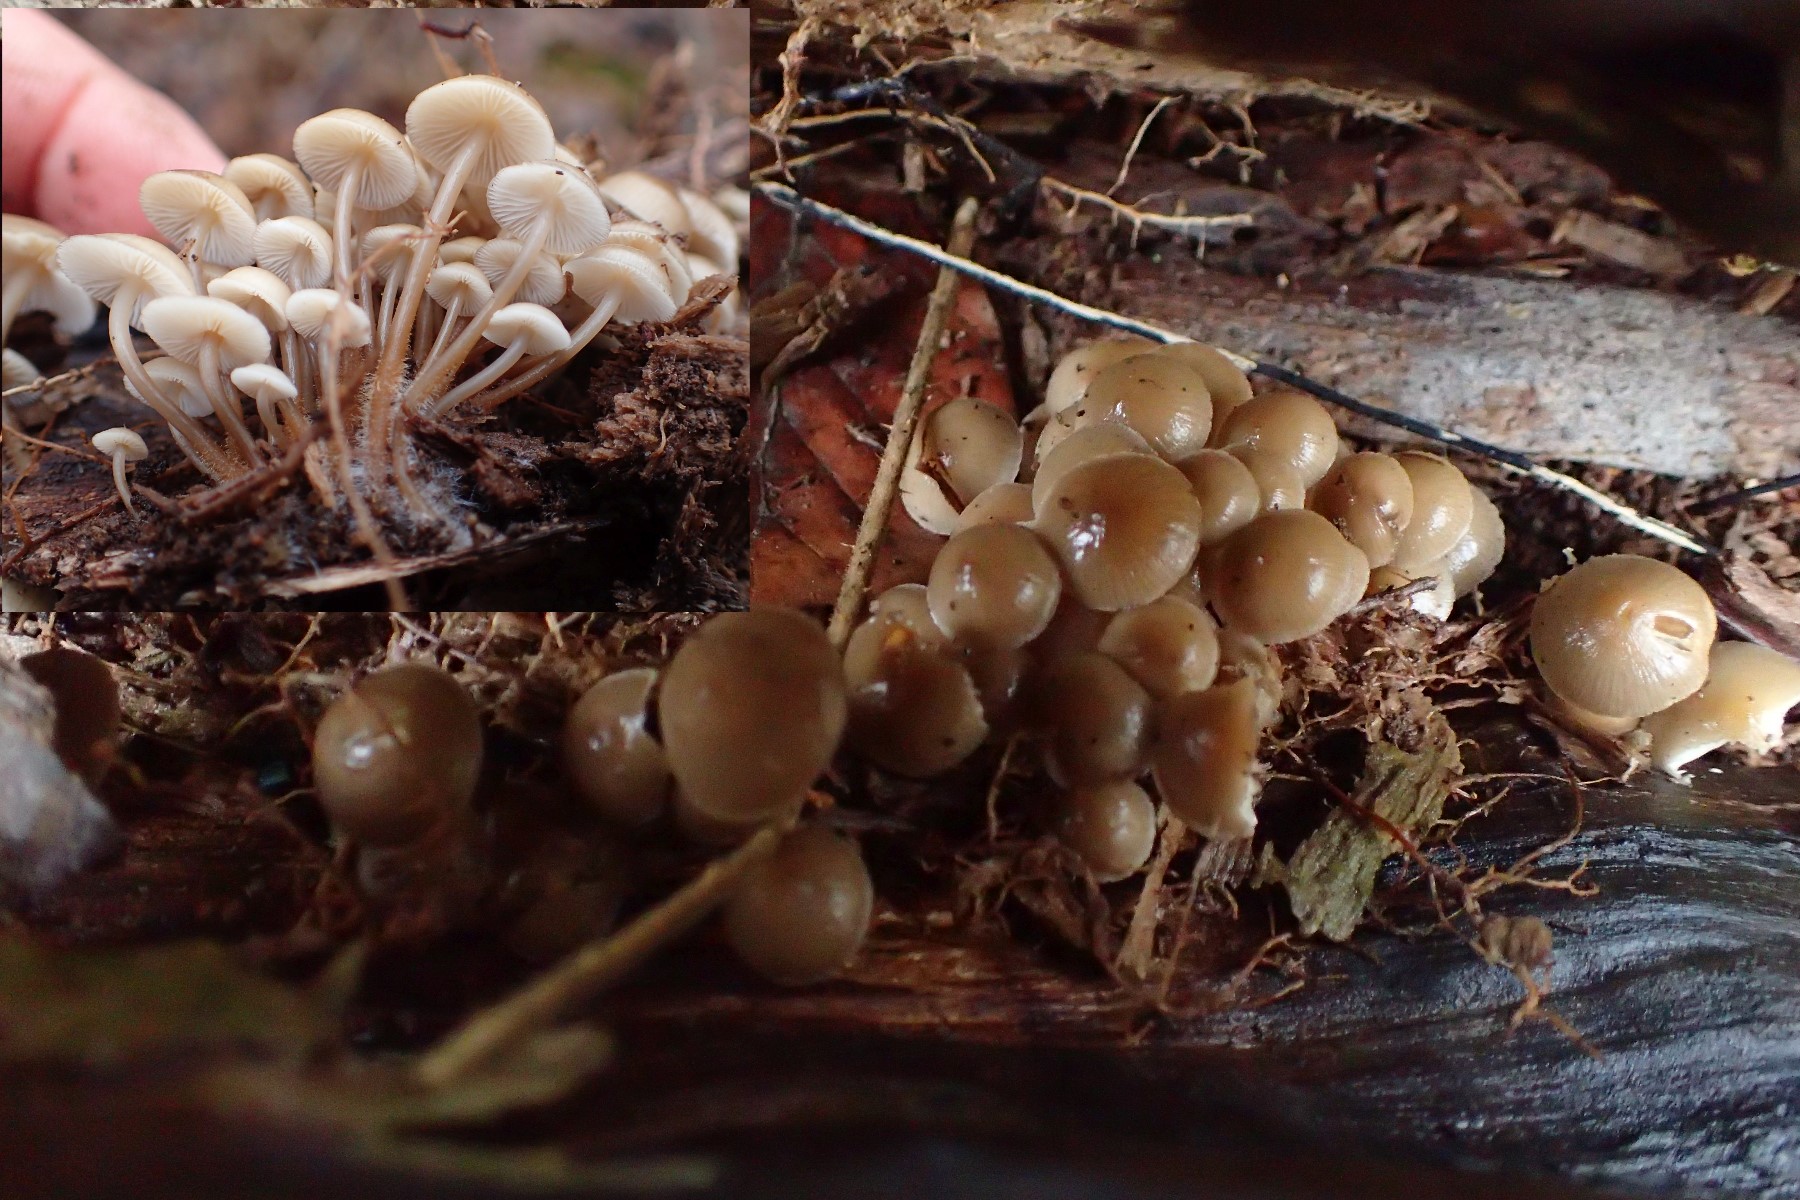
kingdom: Fungi
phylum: Basidiomycota
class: Agaricomycetes
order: Agaricales
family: Mycenaceae
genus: Mycena
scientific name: Mycena tintinnabulum
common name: vinter-huesvamp
